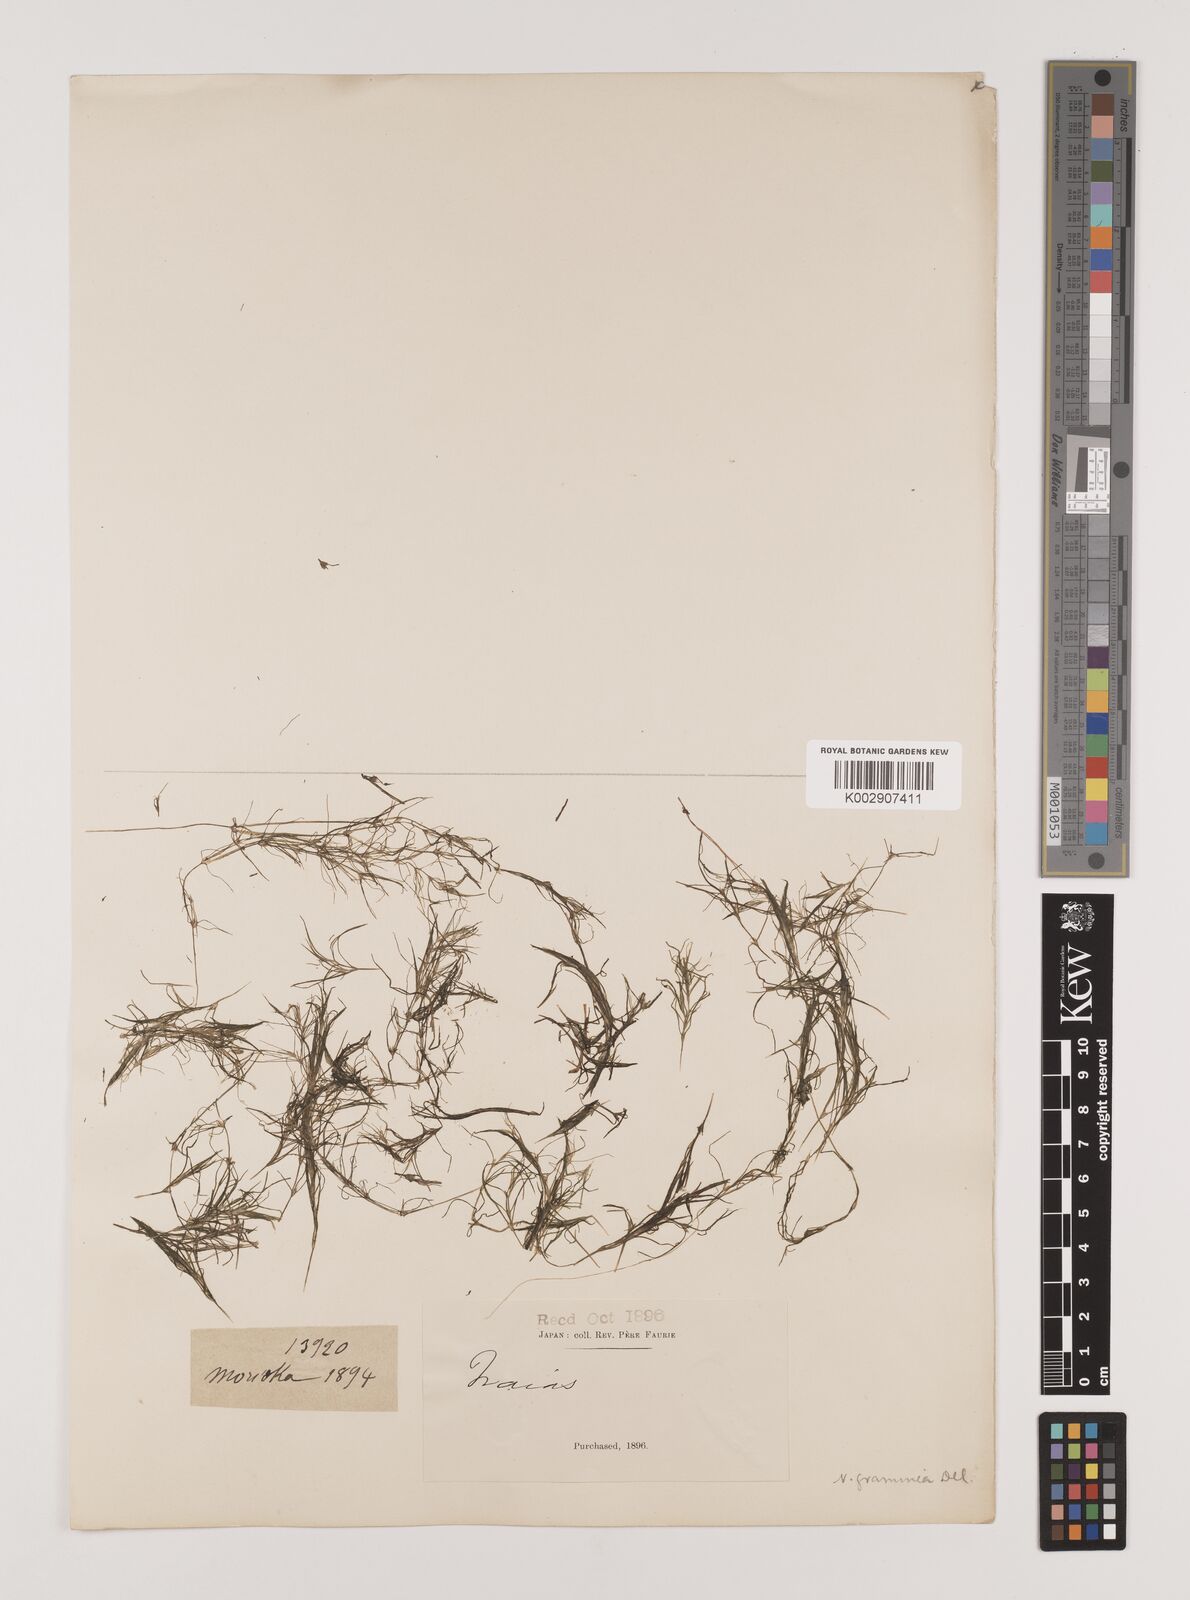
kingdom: Plantae
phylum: Tracheophyta
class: Liliopsida
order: Alismatales
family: Hydrocharitaceae
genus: Najas
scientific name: Najas graminea
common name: Ricefield waternymph
